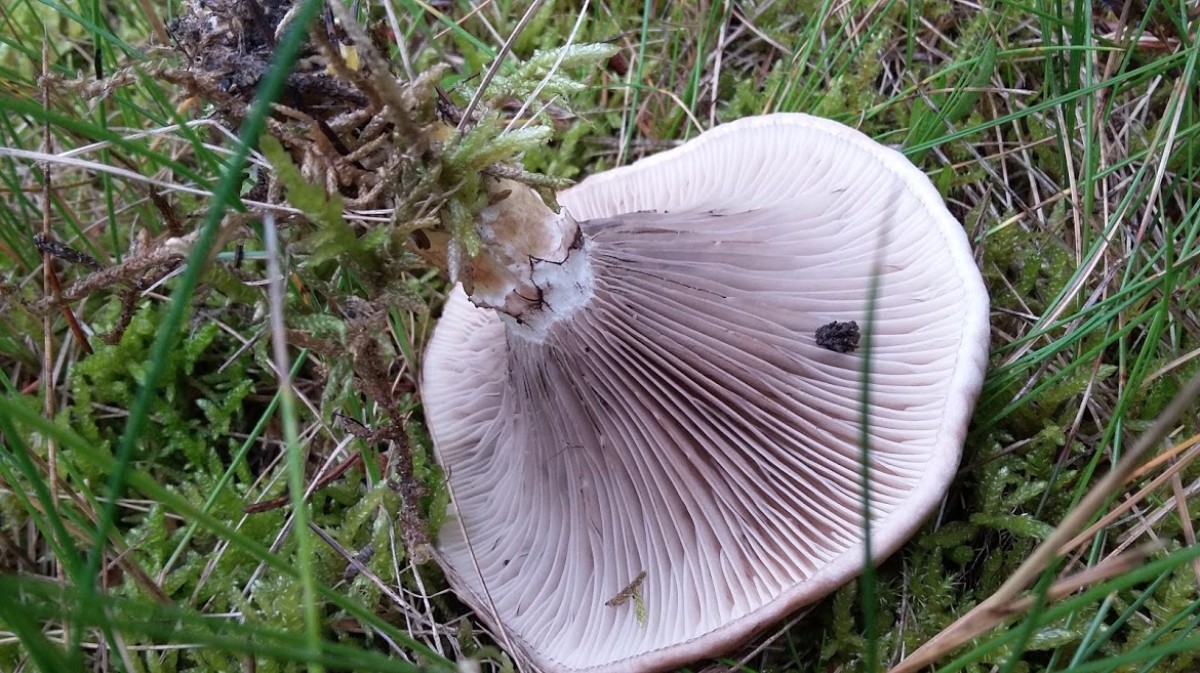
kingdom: Fungi
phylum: Basidiomycota
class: Agaricomycetes
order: Boletales
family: Gomphidiaceae
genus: Gomphidius
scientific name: Gomphidius glutinosus
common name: grå slimslør
